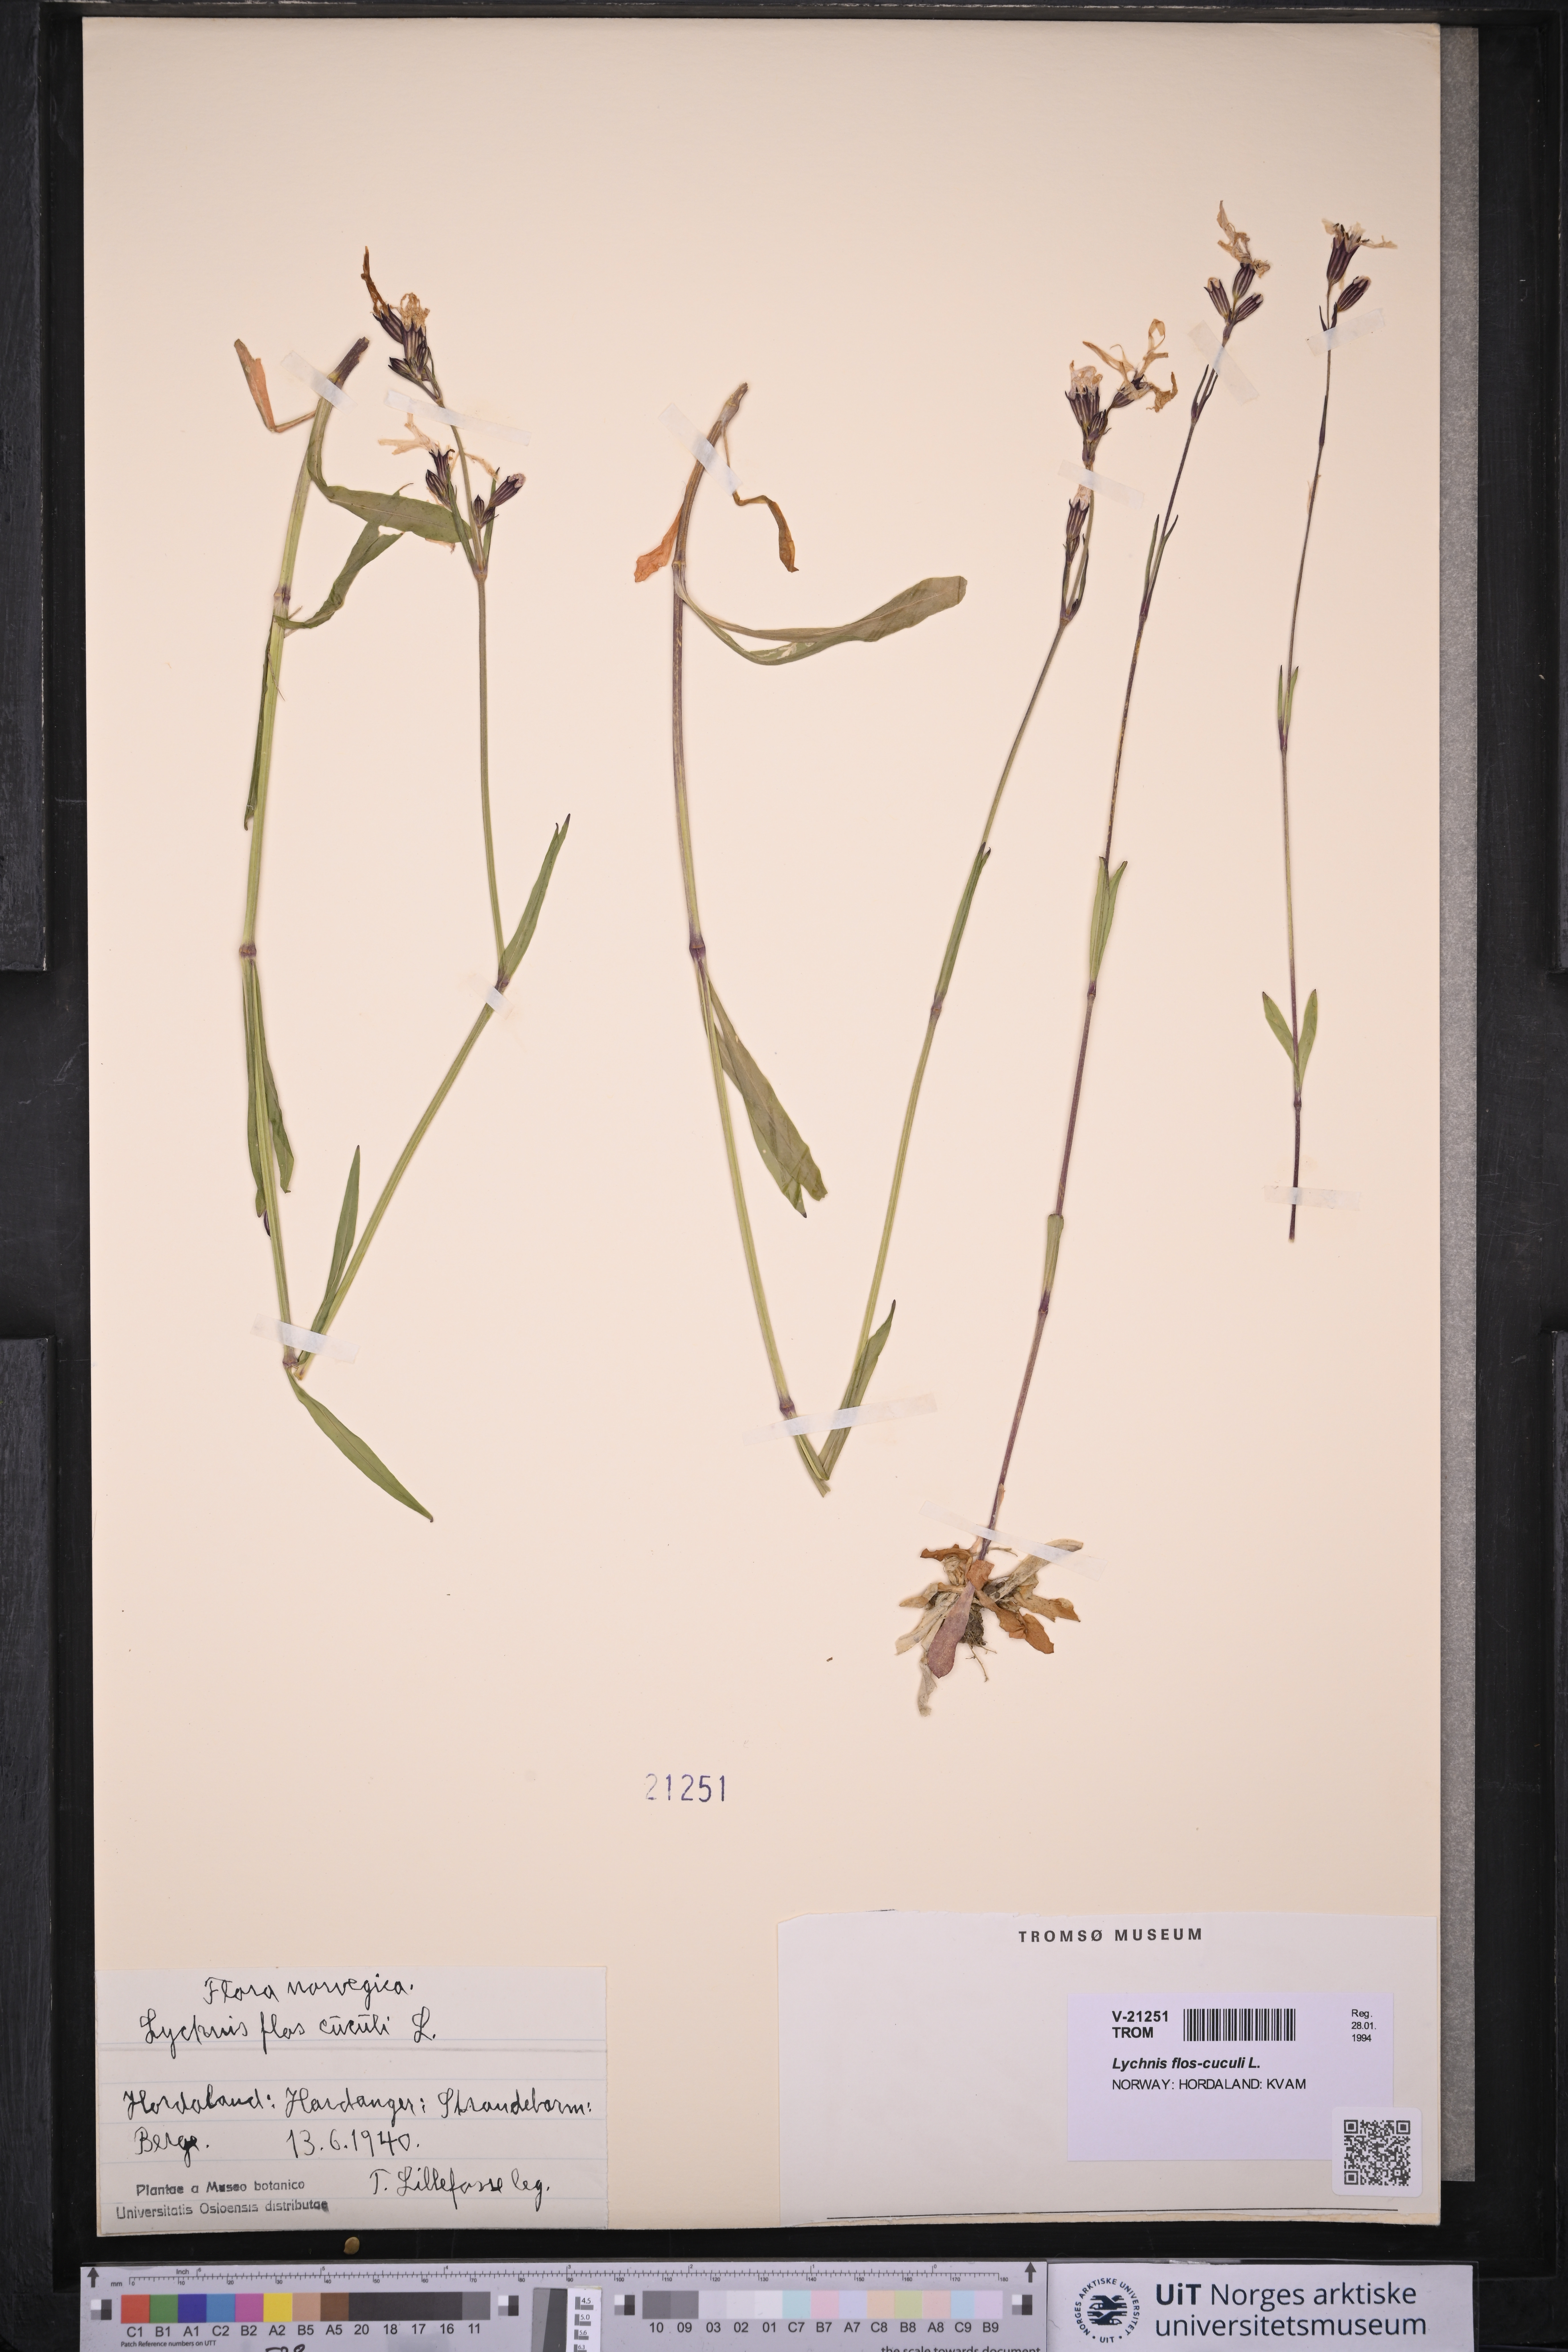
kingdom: Plantae
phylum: Tracheophyta
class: Magnoliopsida
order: Caryophyllales
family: Caryophyllaceae
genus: Silene
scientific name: Silene flos-cuculi
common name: Ragged-robin
